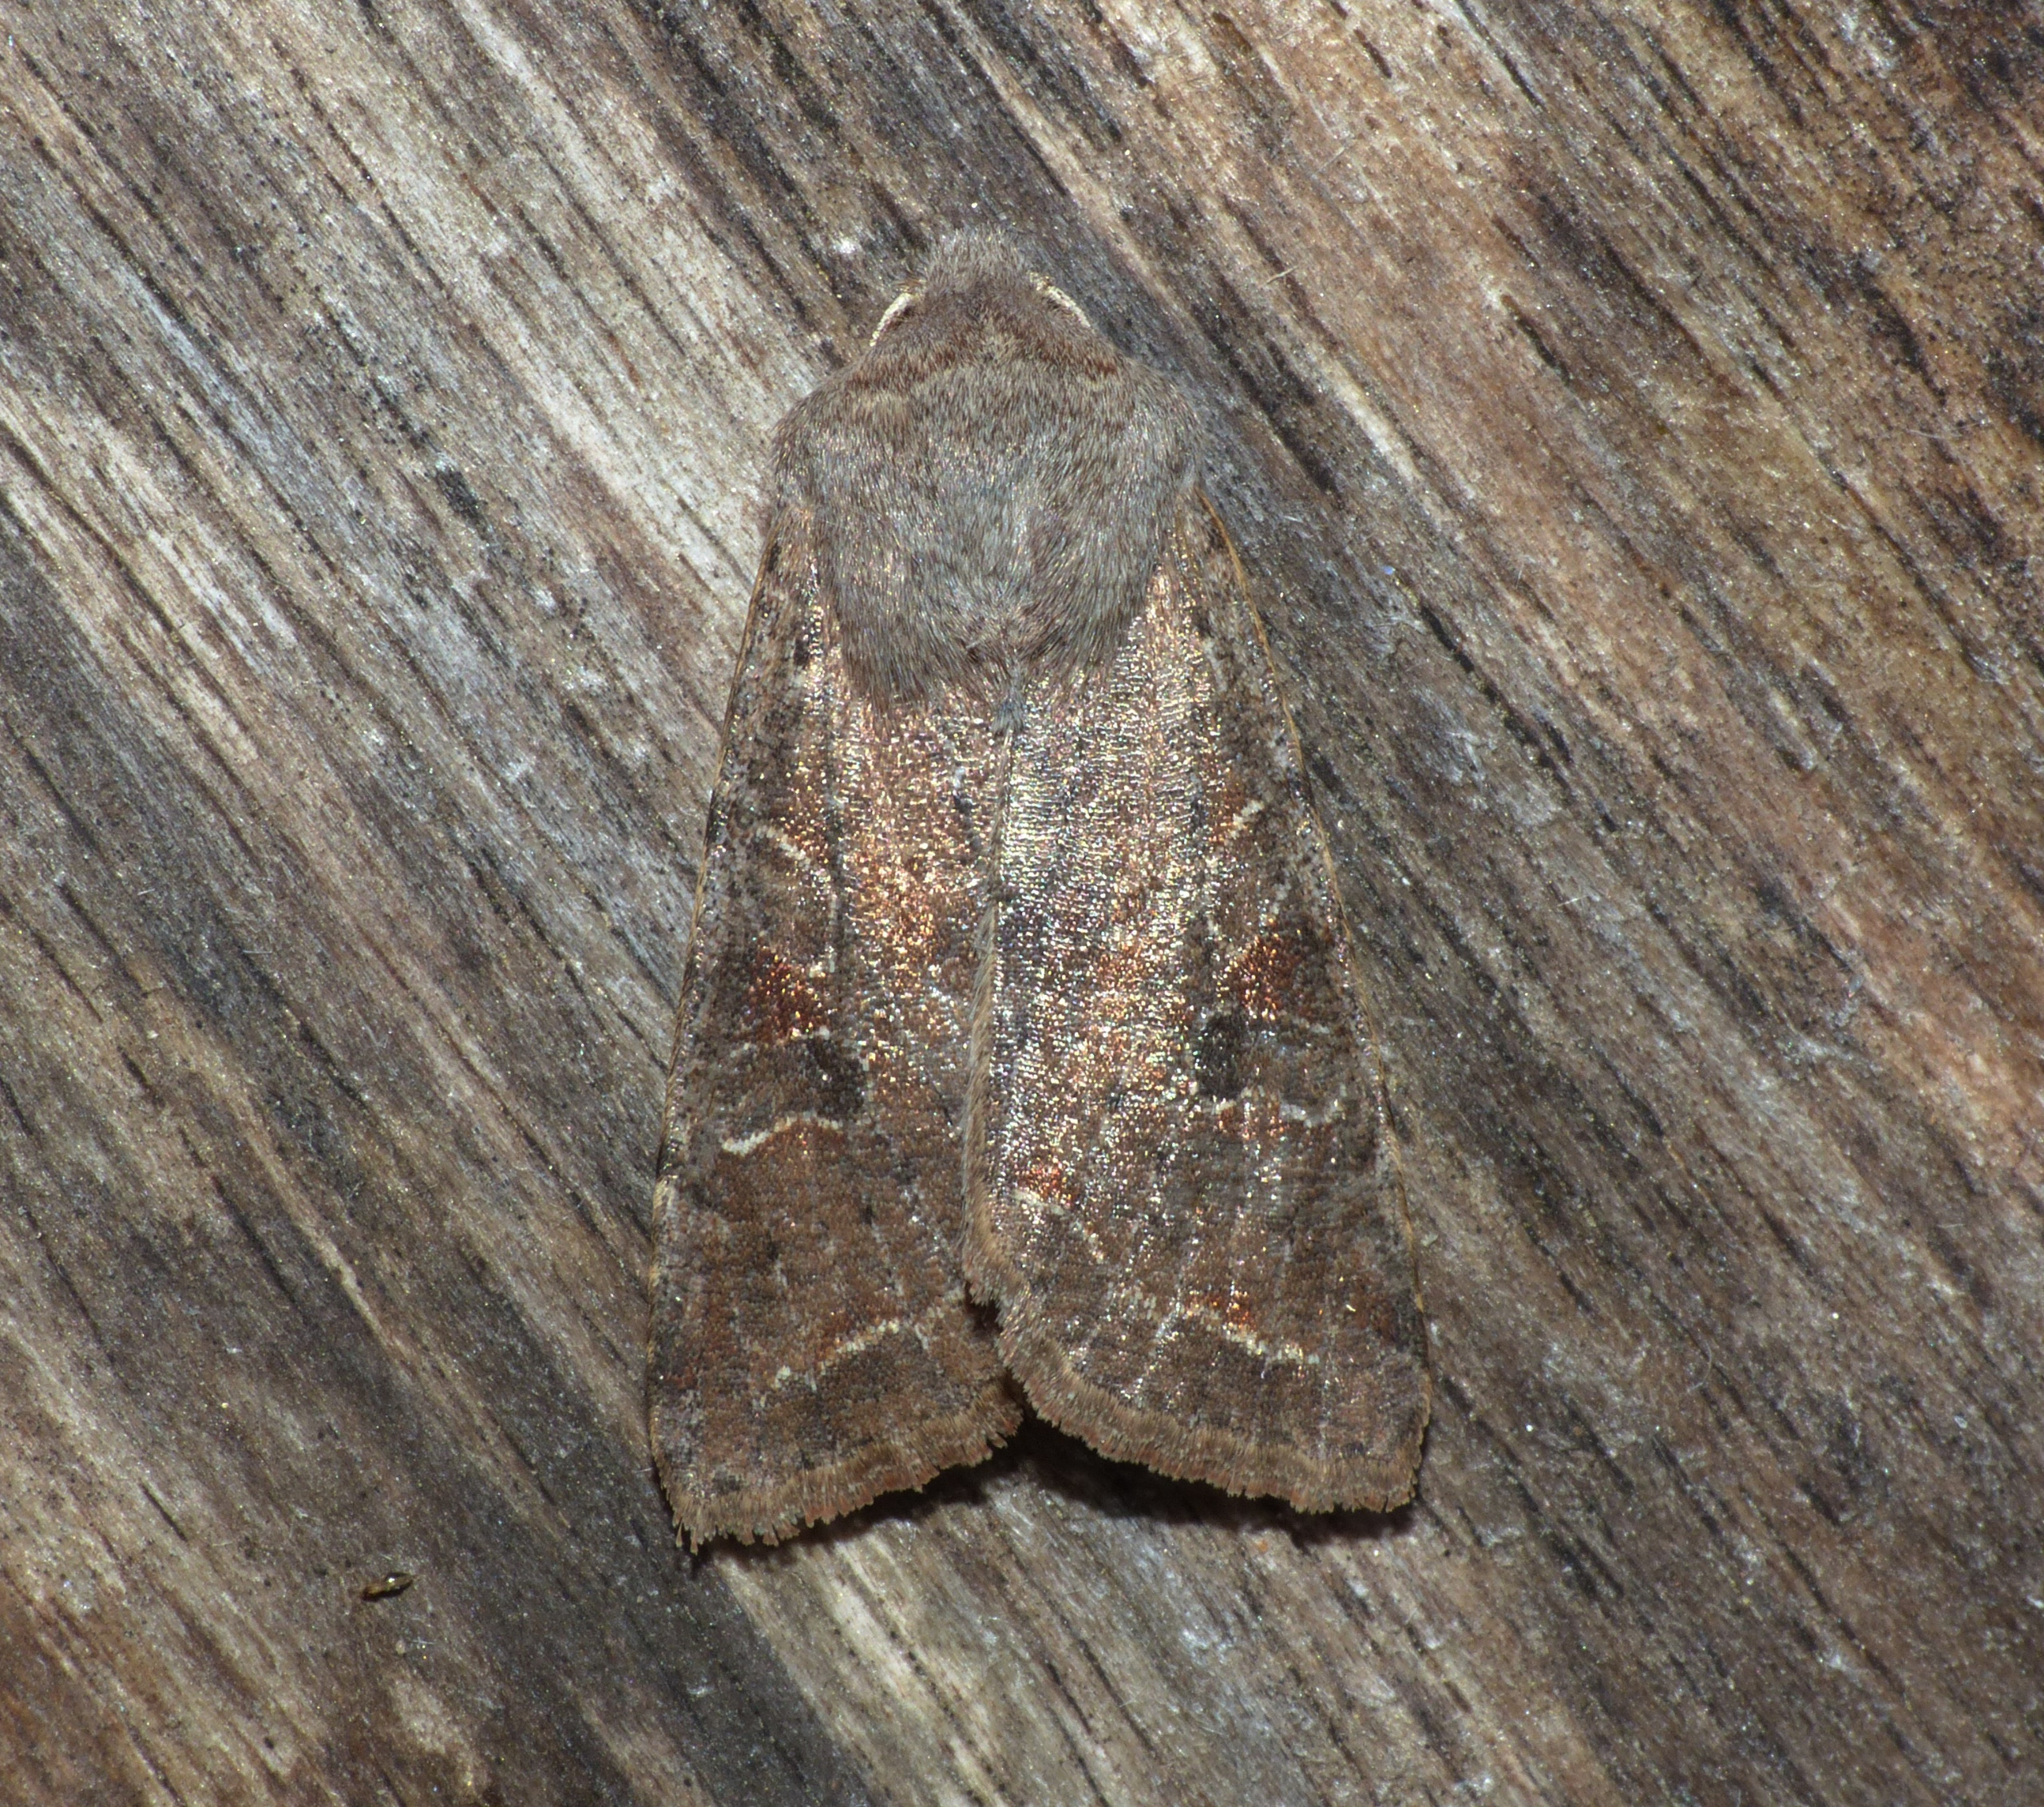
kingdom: Animalia
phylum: Arthropoda
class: Insecta
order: Lepidoptera
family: Noctuidae
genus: Orthosia
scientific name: Orthosia incerta
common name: Broget forårsugle
